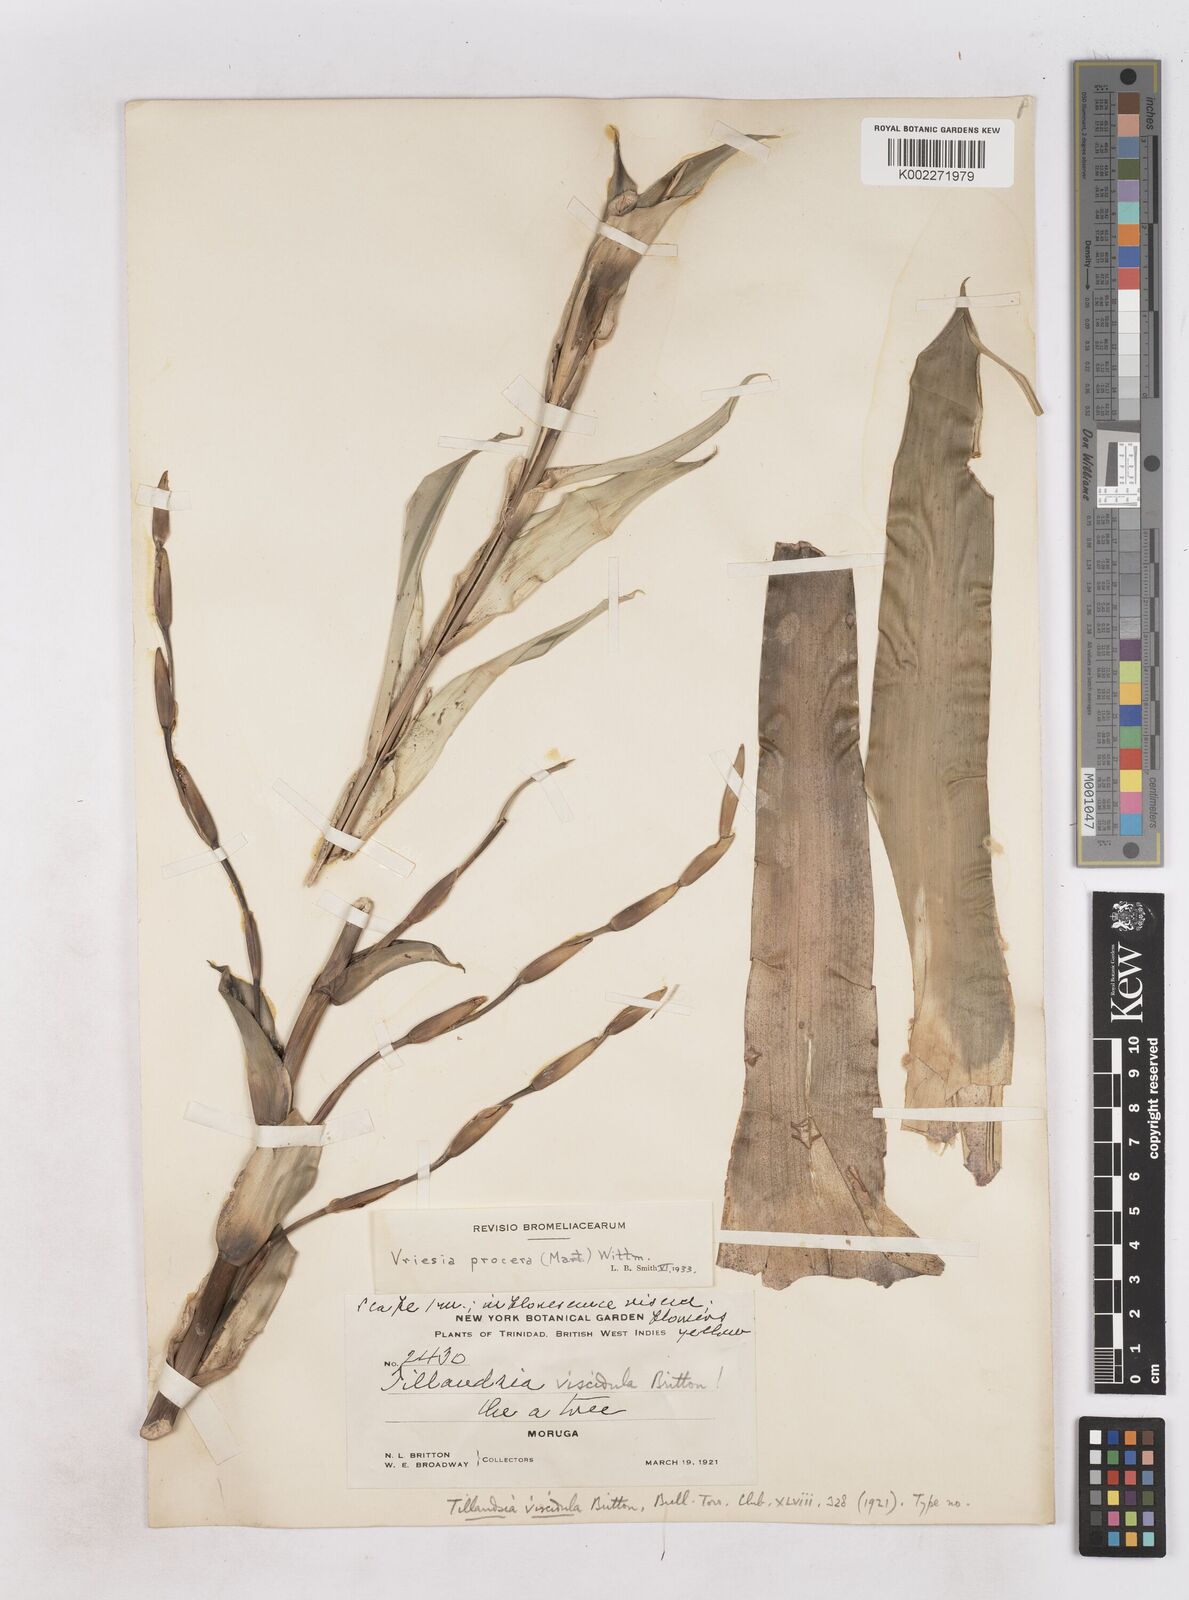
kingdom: Plantae
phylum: Tracheophyta
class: Liliopsida
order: Poales
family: Bromeliaceae
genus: Vriesea
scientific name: Vriesea procera
